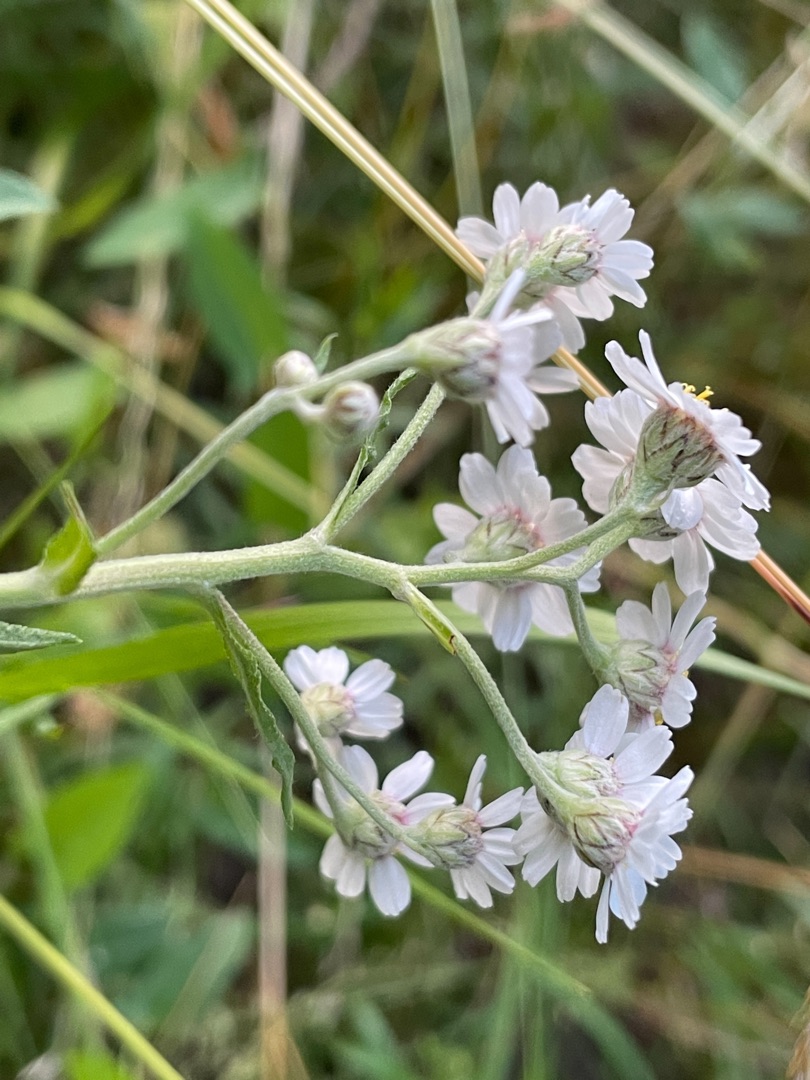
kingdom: Plantae
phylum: Tracheophyta
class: Magnoliopsida
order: Asterales
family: Asteraceae
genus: Achillea
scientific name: Achillea ptarmica
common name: Nyse-røllike
